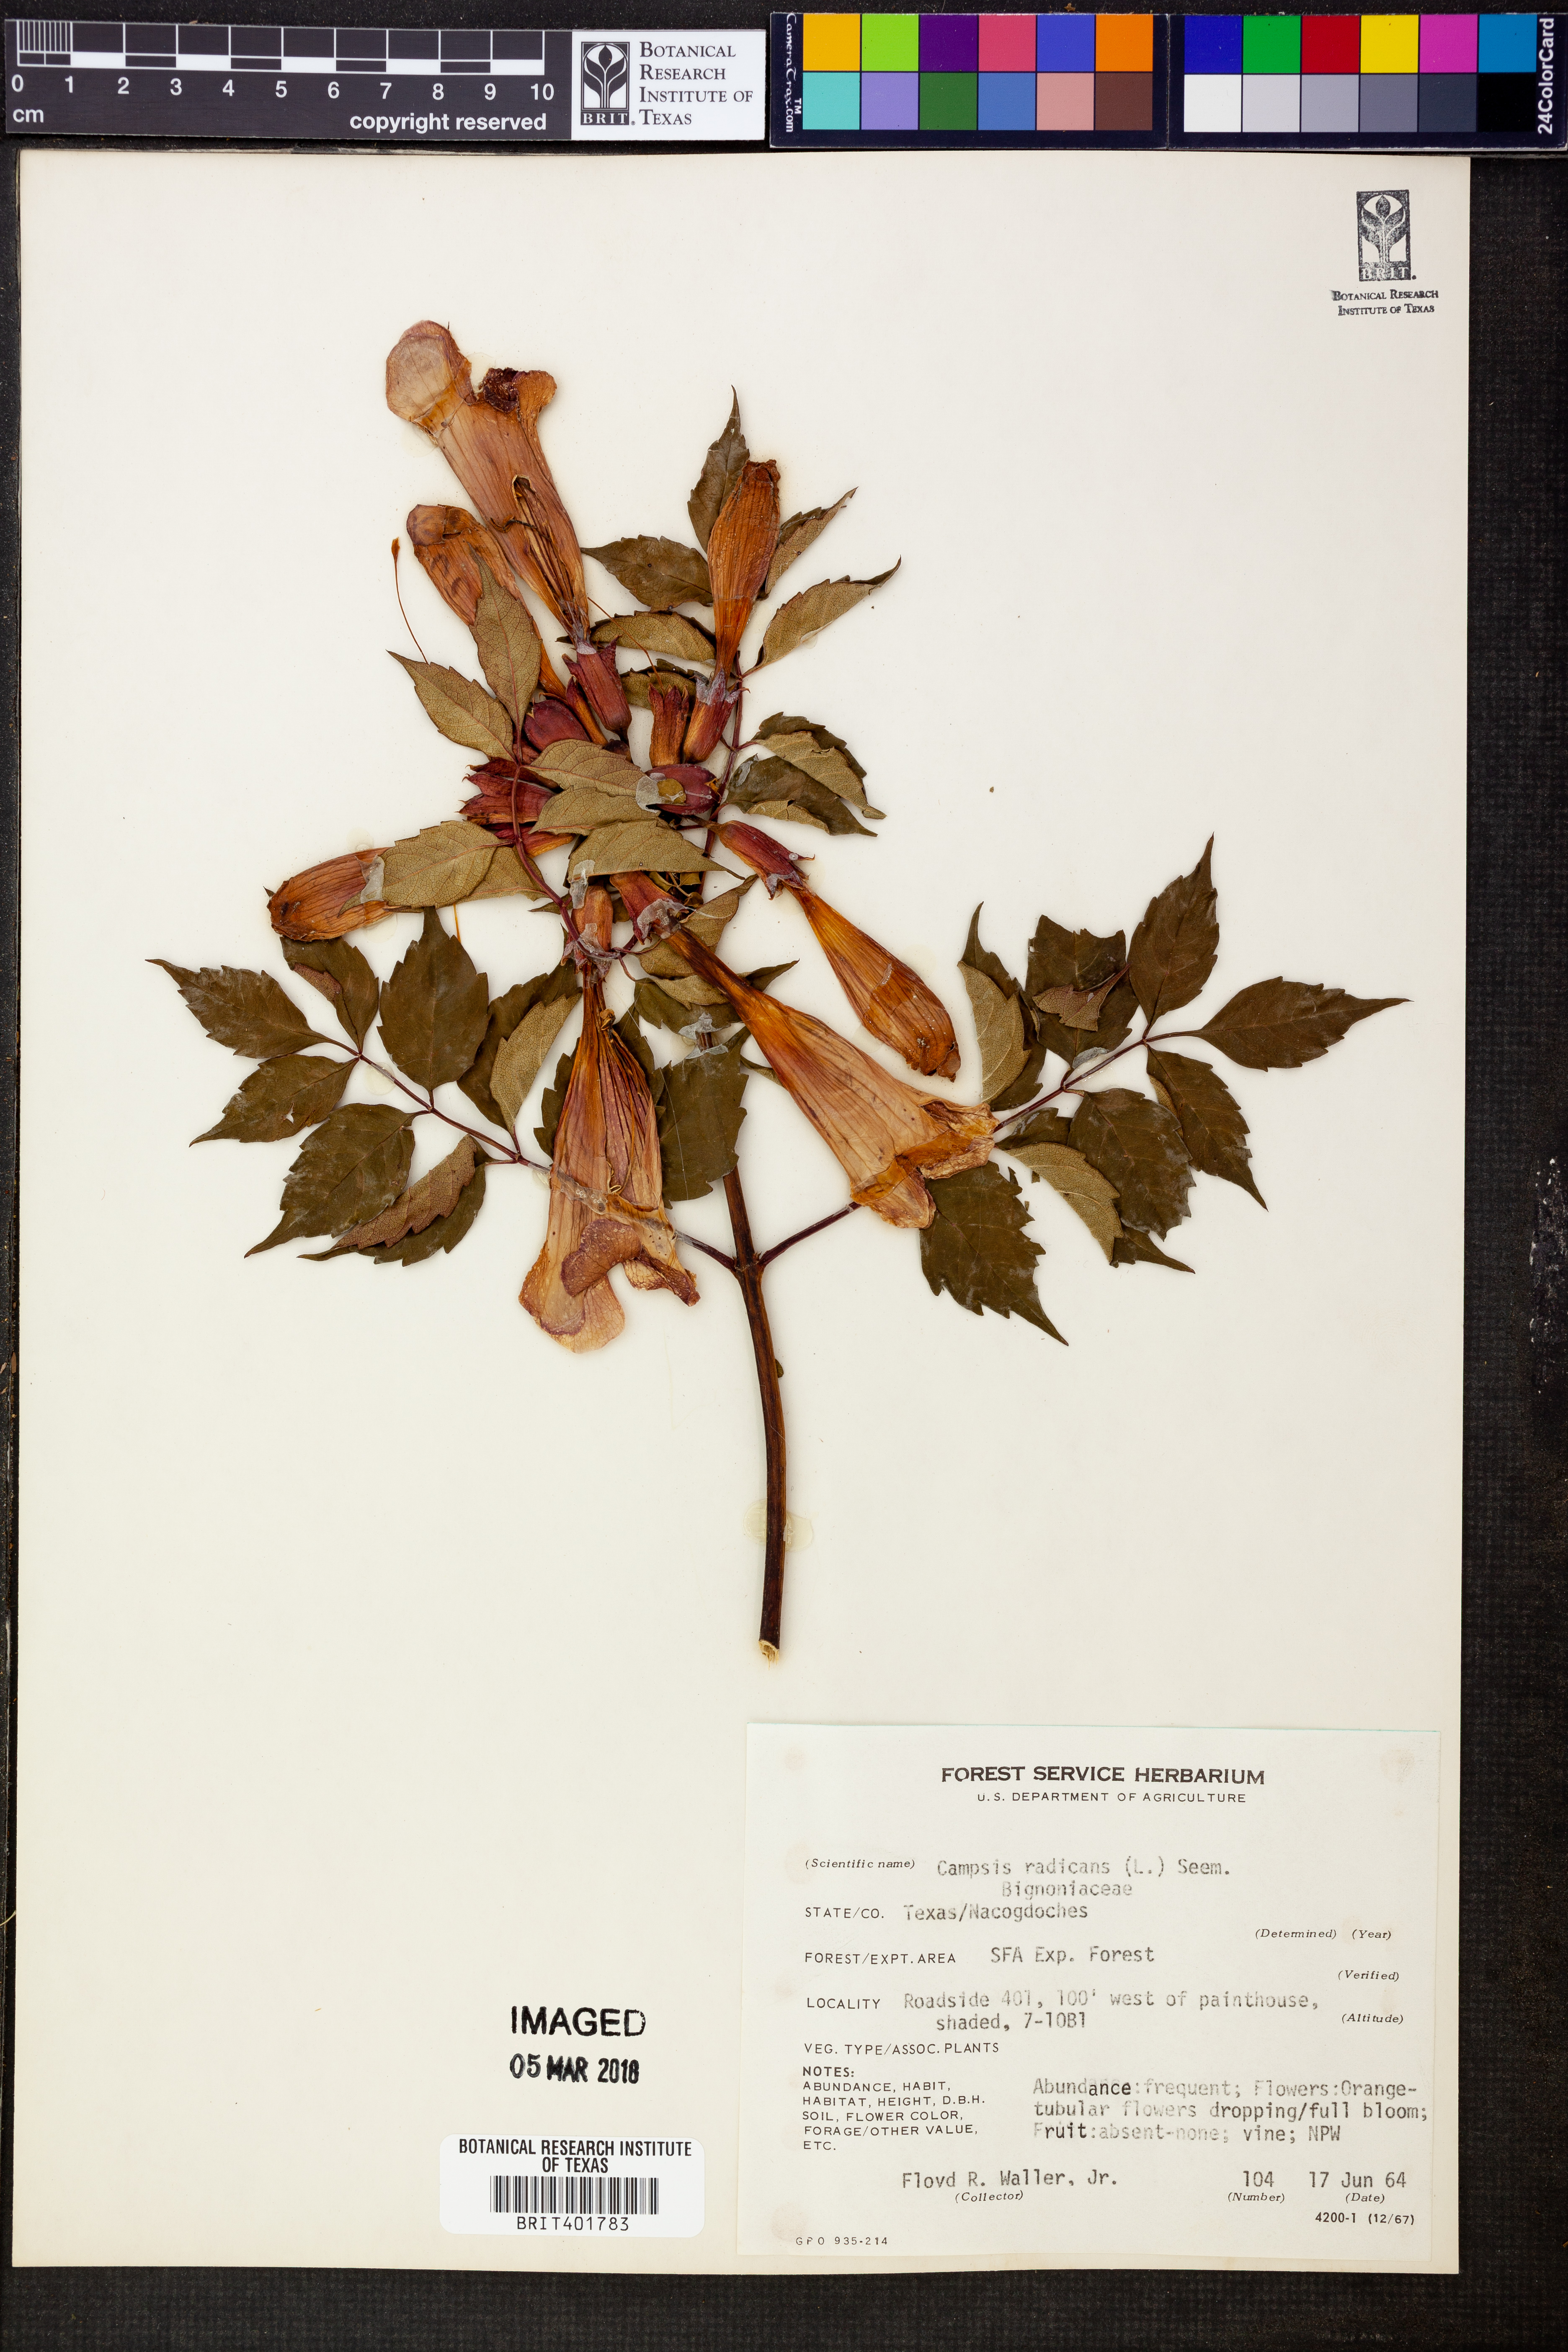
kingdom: Plantae
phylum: Tracheophyta
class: Magnoliopsida
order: Lamiales
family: Bignoniaceae
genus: Campsis
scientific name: Campsis radicans
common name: Trumpet-creeper
